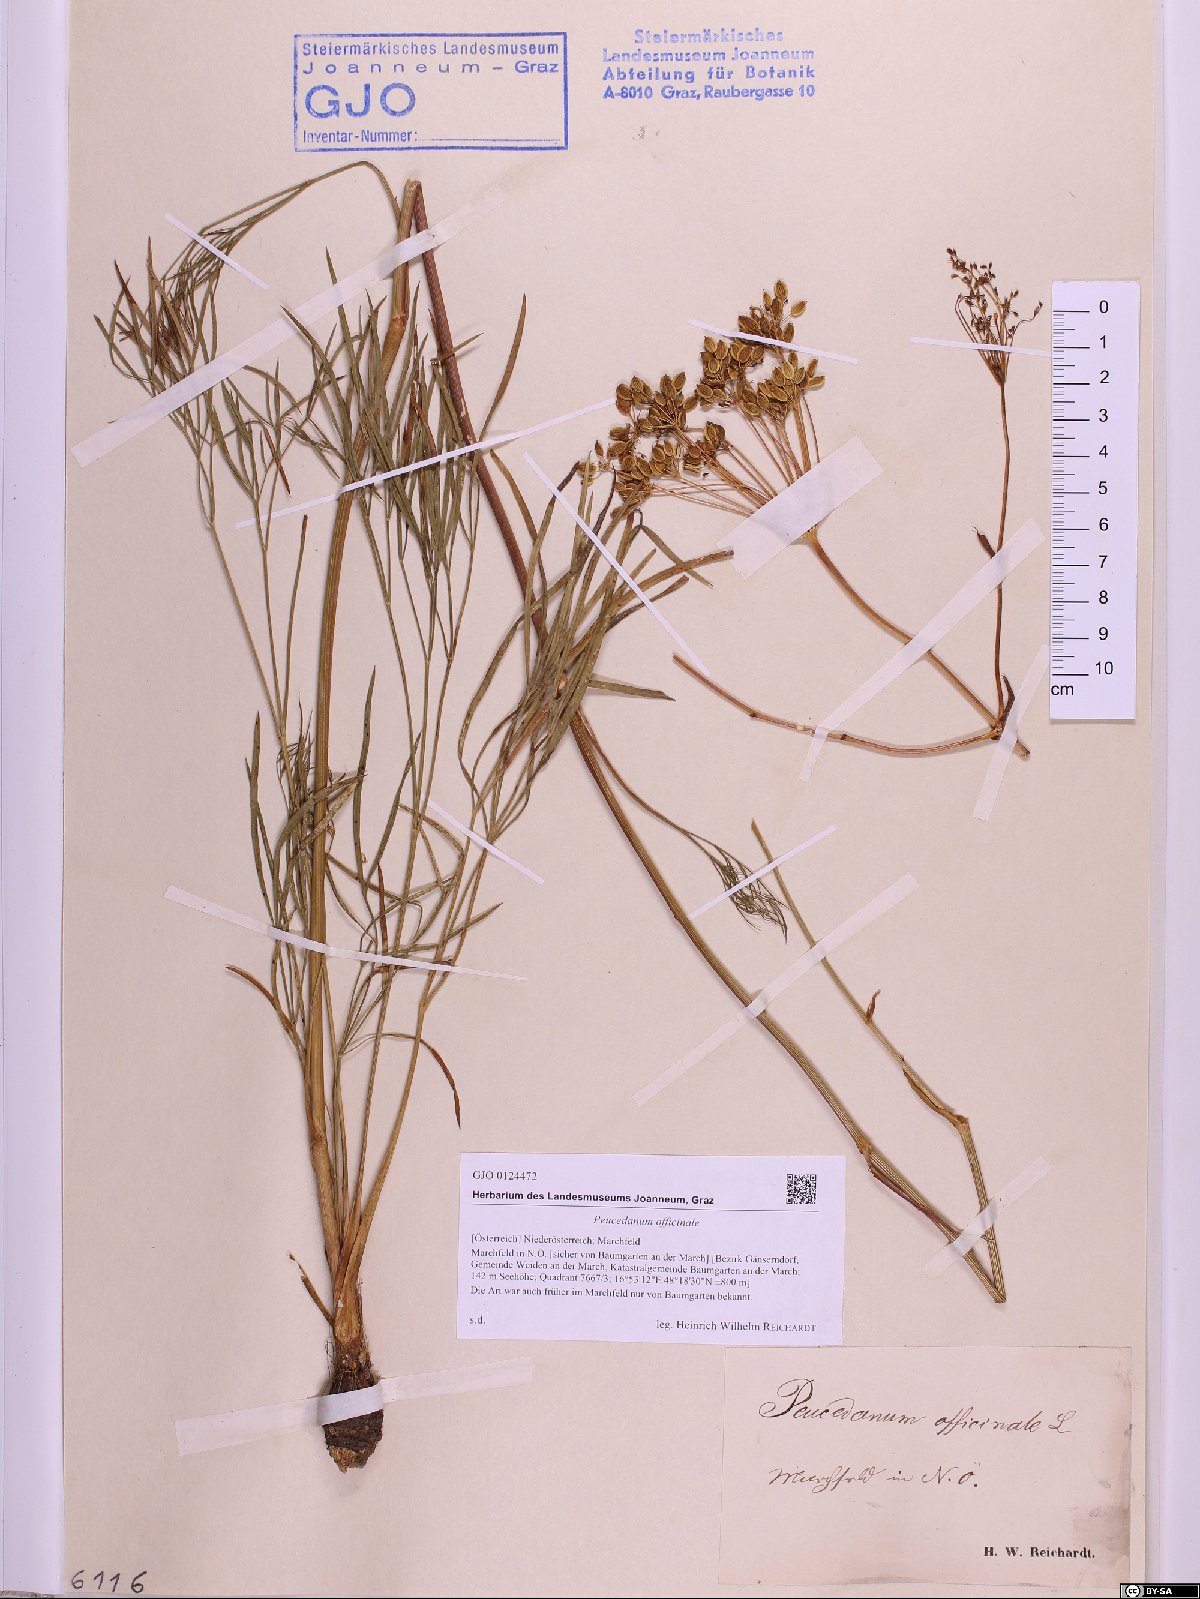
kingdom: Plantae
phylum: Tracheophyta
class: Magnoliopsida
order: Apiales
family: Apiaceae
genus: Peucedanum
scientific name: Peucedanum officinale
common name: Sulphurweed
